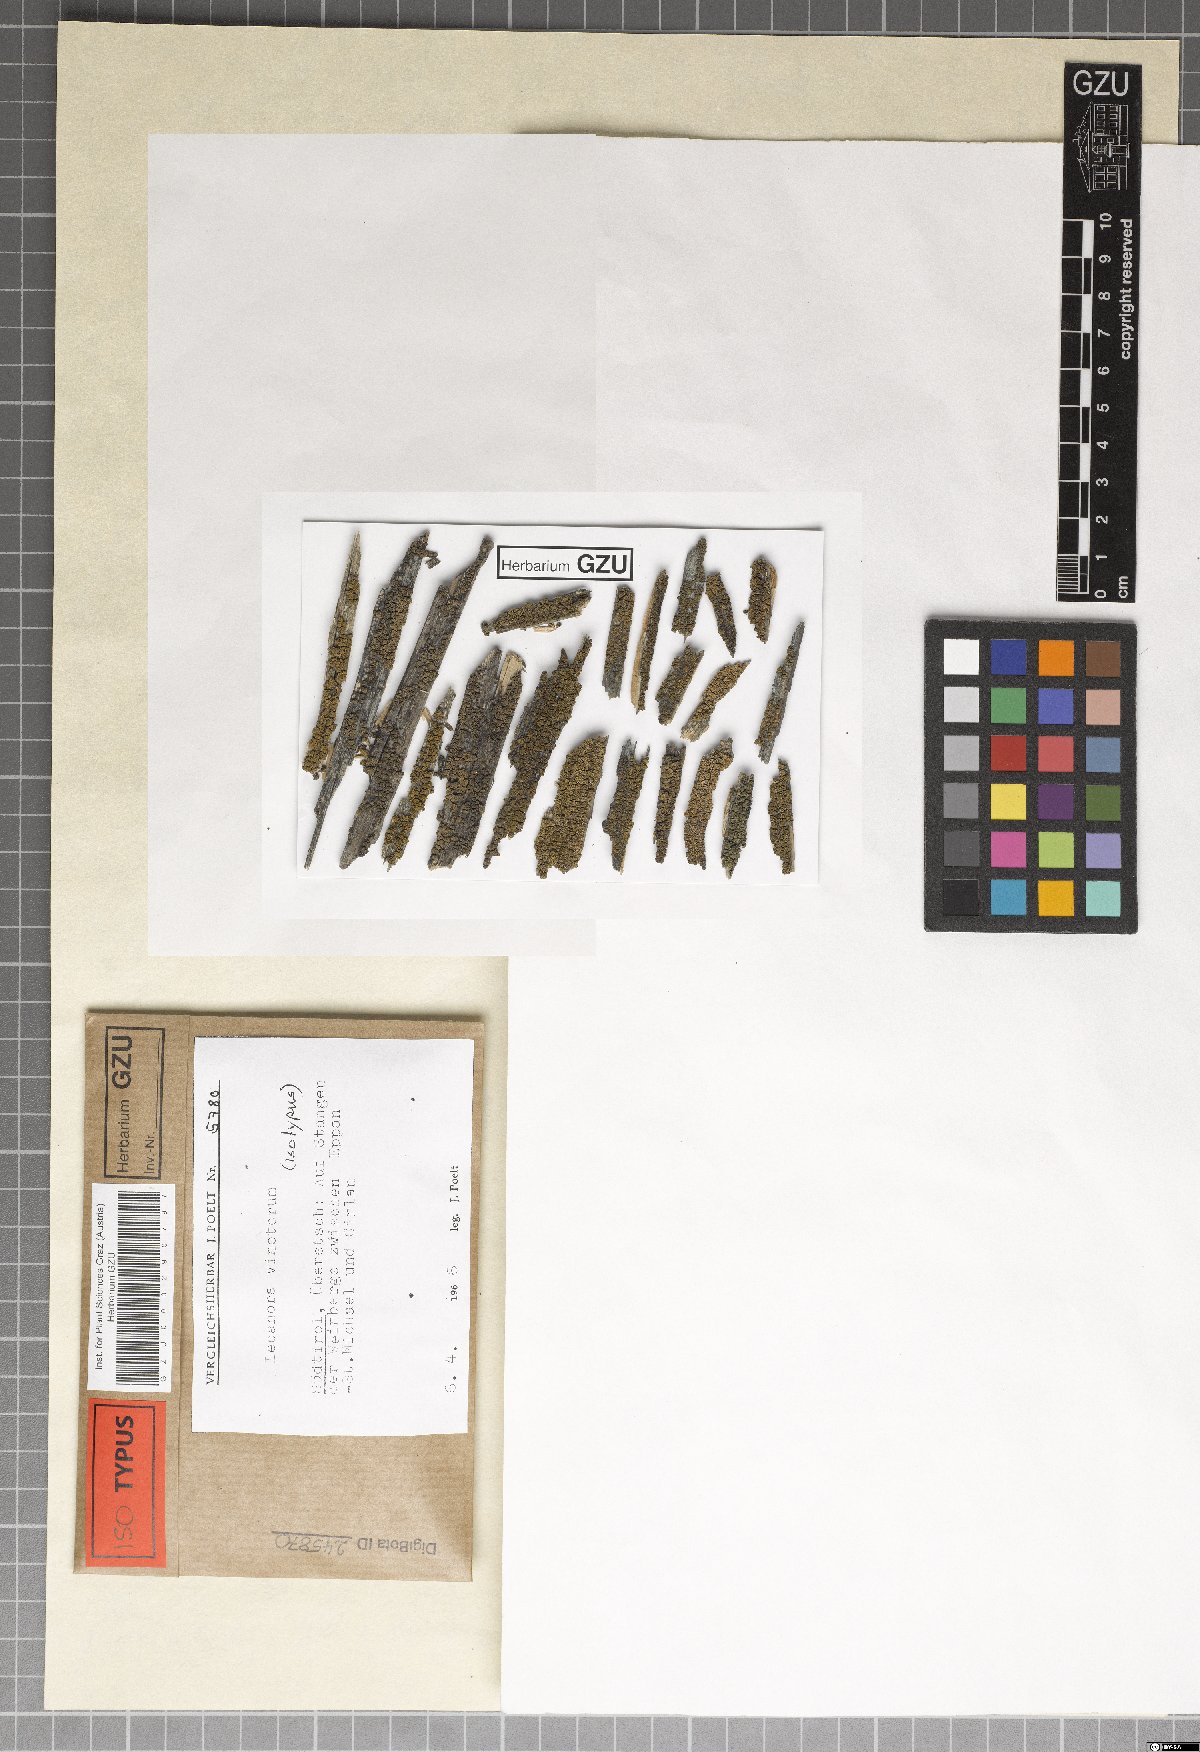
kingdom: Fungi
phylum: Ascomycota
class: Lecanoromycetes
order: Lecanorales
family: Lecanoraceae
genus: Lecanora
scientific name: Lecanora vinetorum
